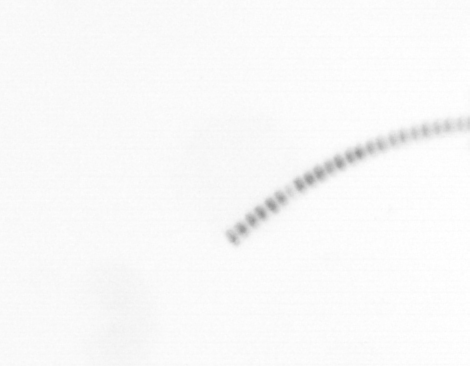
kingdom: Chromista
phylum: Ochrophyta
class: Bacillariophyceae
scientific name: Bacillariophyceae
